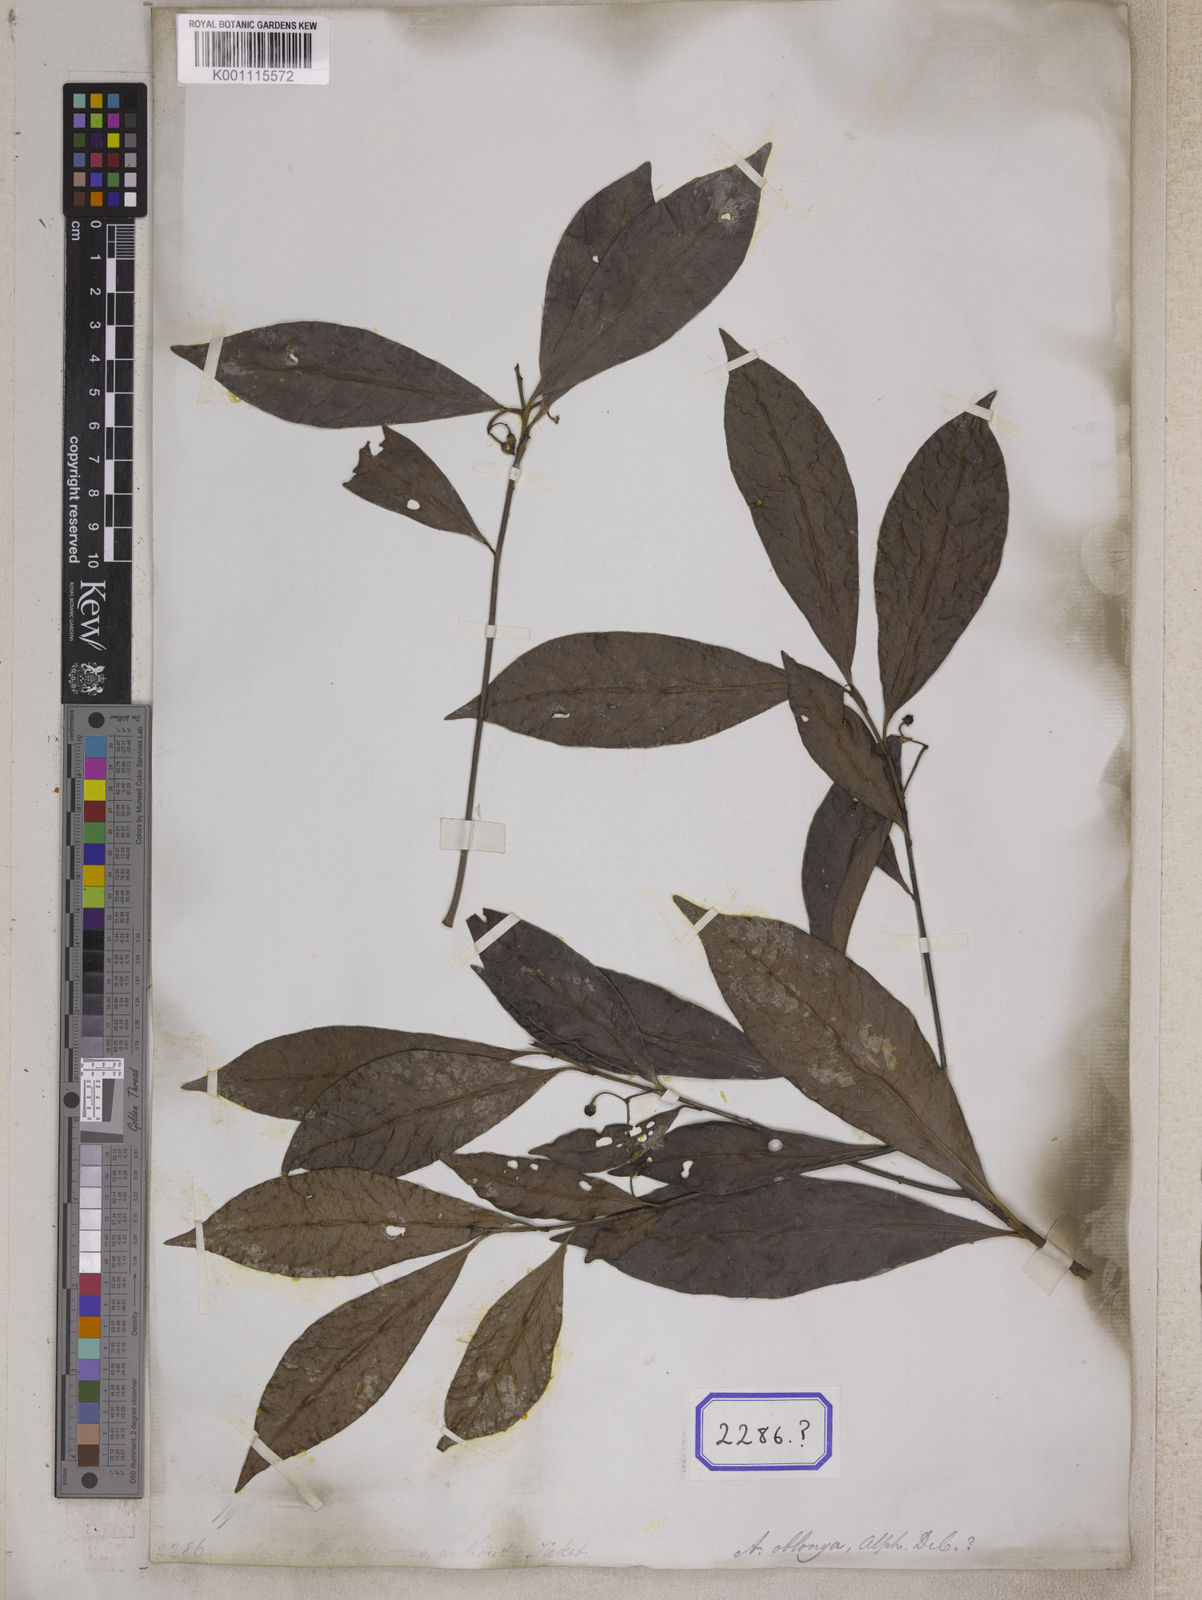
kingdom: Plantae
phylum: Tracheophyta
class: Magnoliopsida
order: Ericales
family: Primulaceae
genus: Ardisia
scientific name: Ardisia
